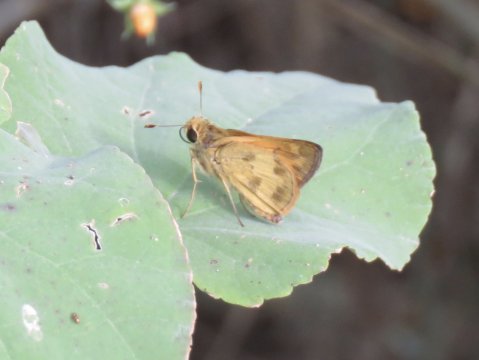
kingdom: Animalia
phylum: Arthropoda
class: Insecta
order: Lepidoptera
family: Hesperiidae
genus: Polites
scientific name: Polites vibex
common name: Whirlabout
